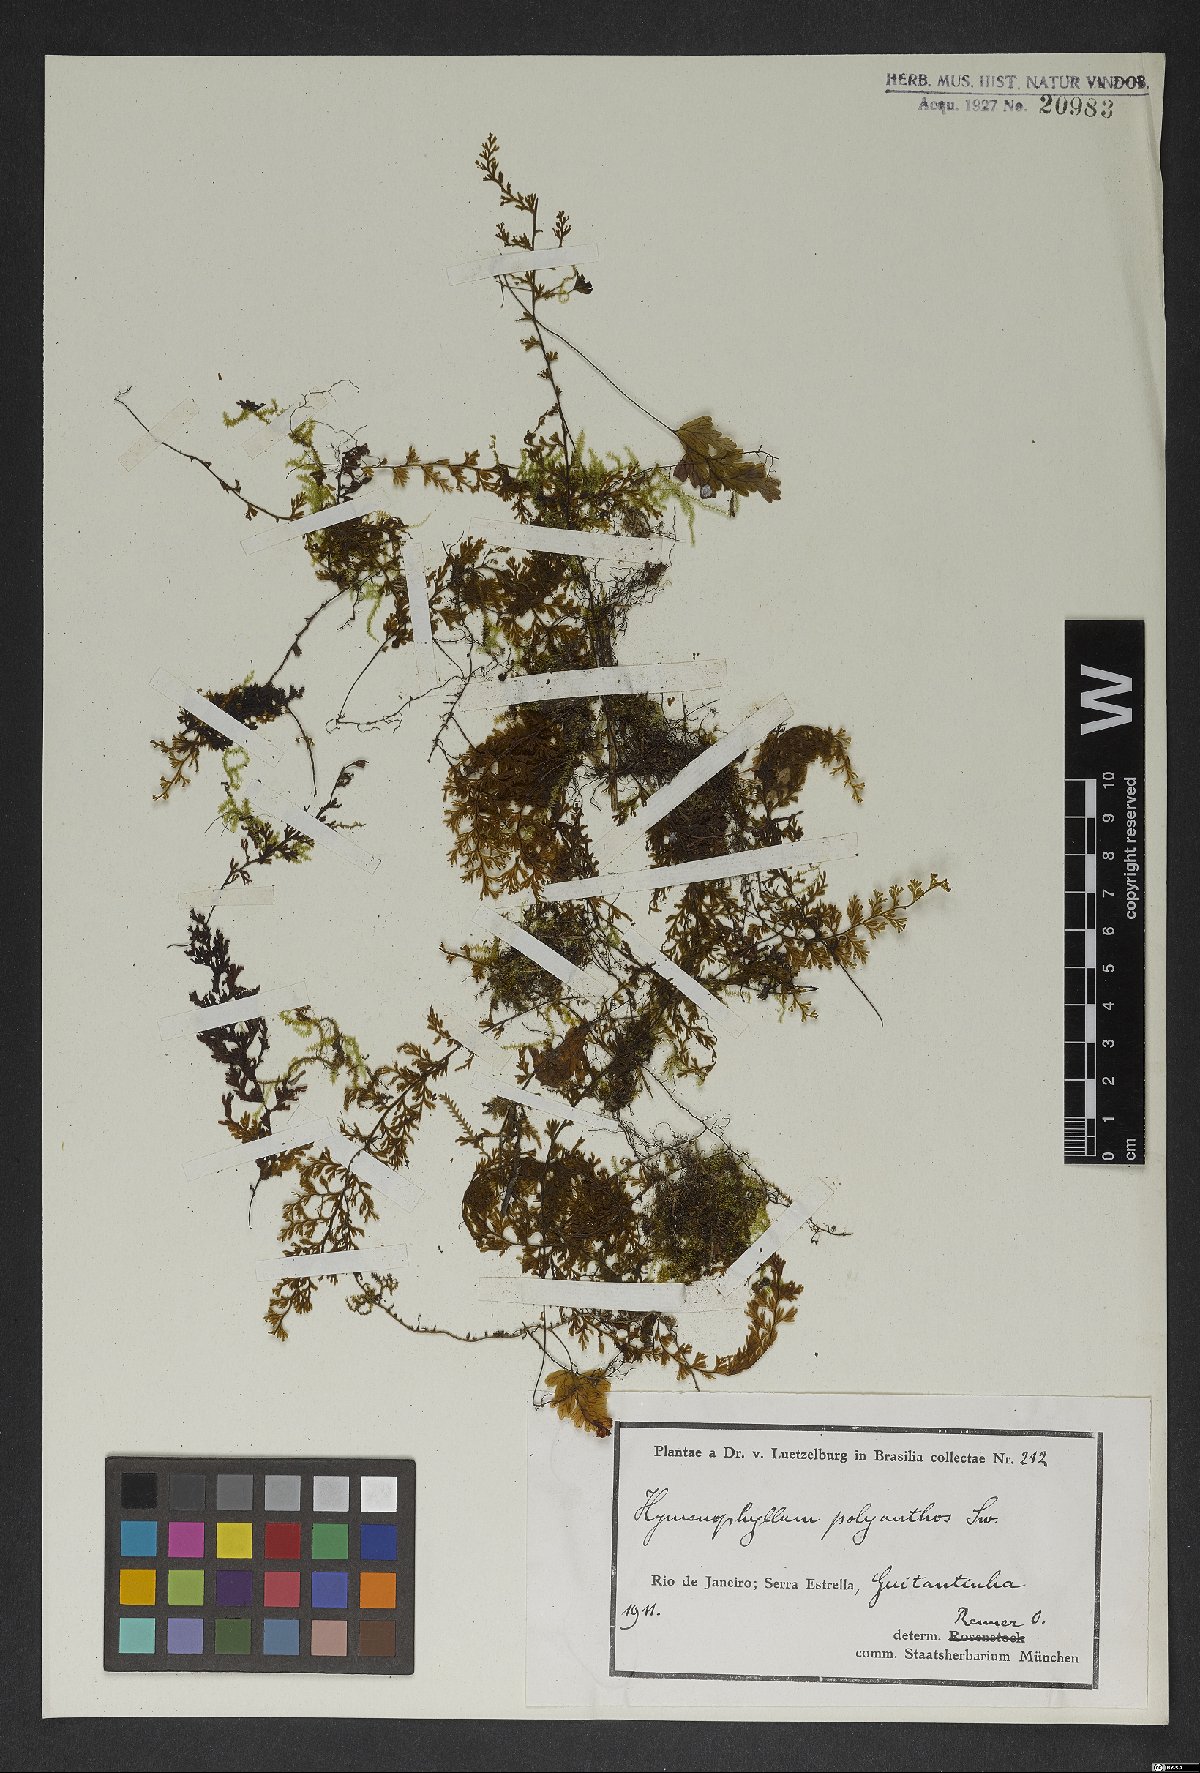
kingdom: Plantae
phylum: Tracheophyta
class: Polypodiopsida
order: Hymenophyllales
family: Hymenophyllaceae
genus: Hymenophyllum
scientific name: Hymenophyllum polyanthos
